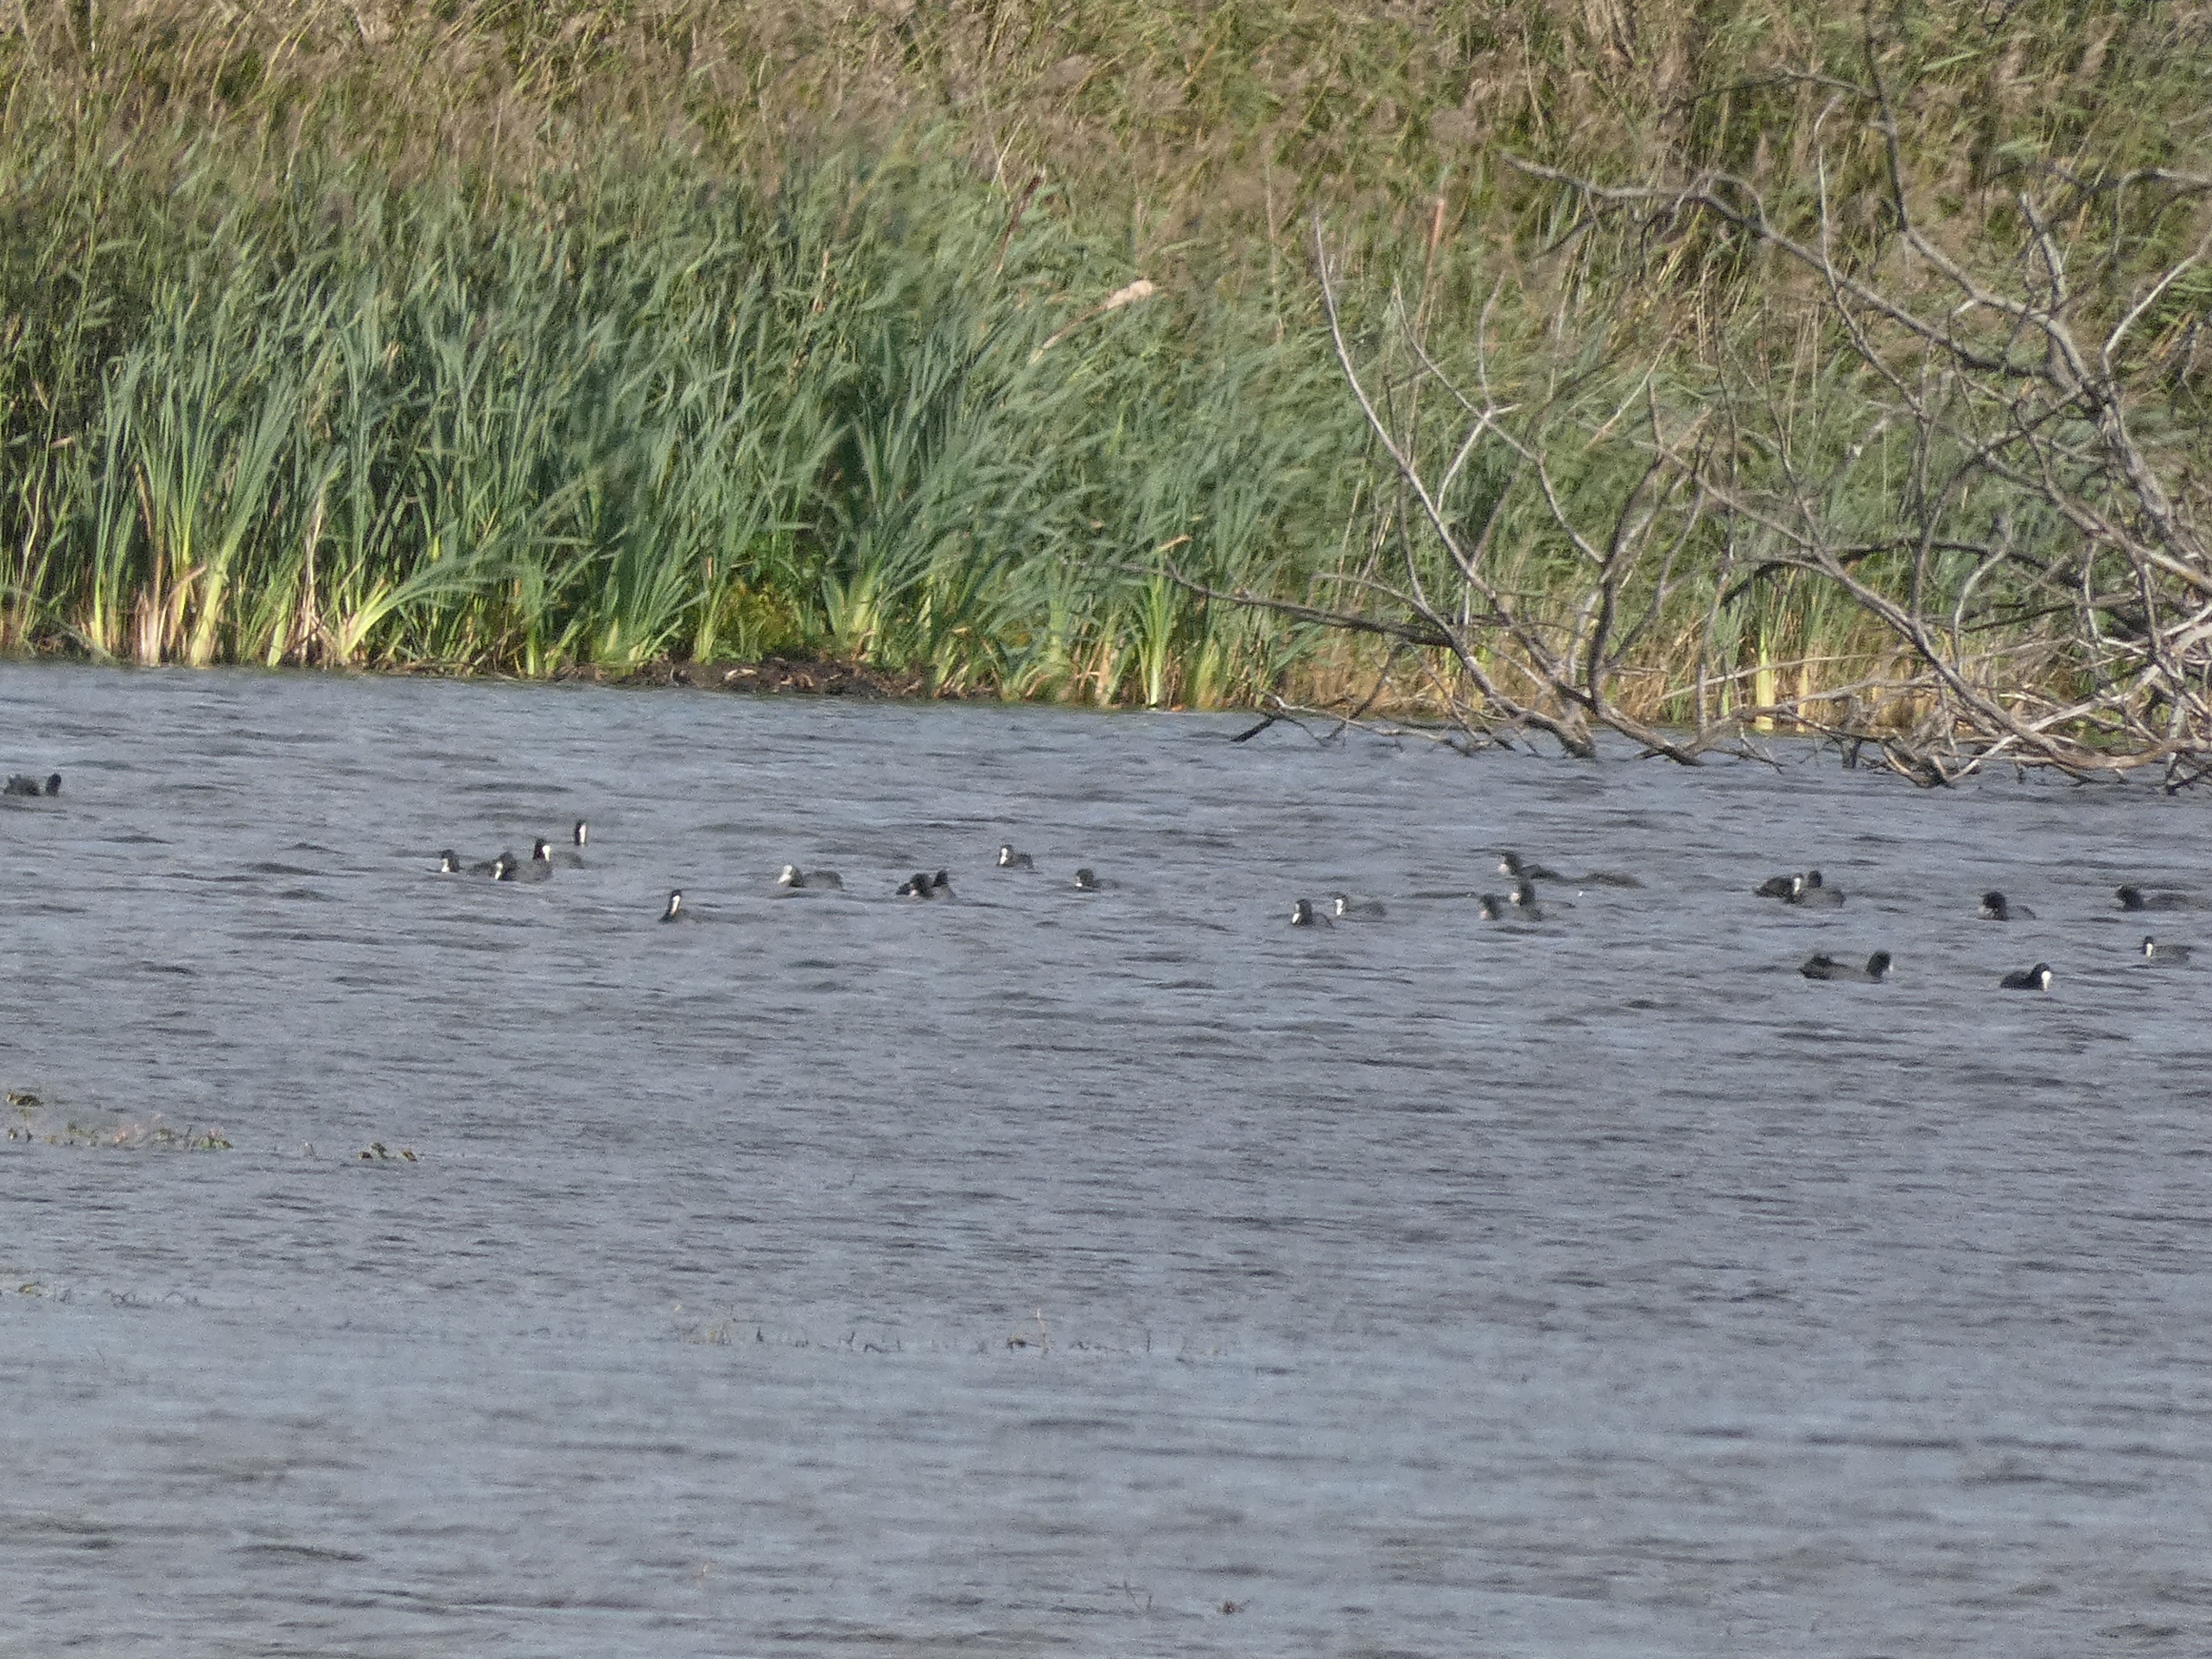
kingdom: Animalia
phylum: Chordata
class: Aves
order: Gruiformes
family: Rallidae
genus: Fulica
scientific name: Fulica atra
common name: Blishøne
